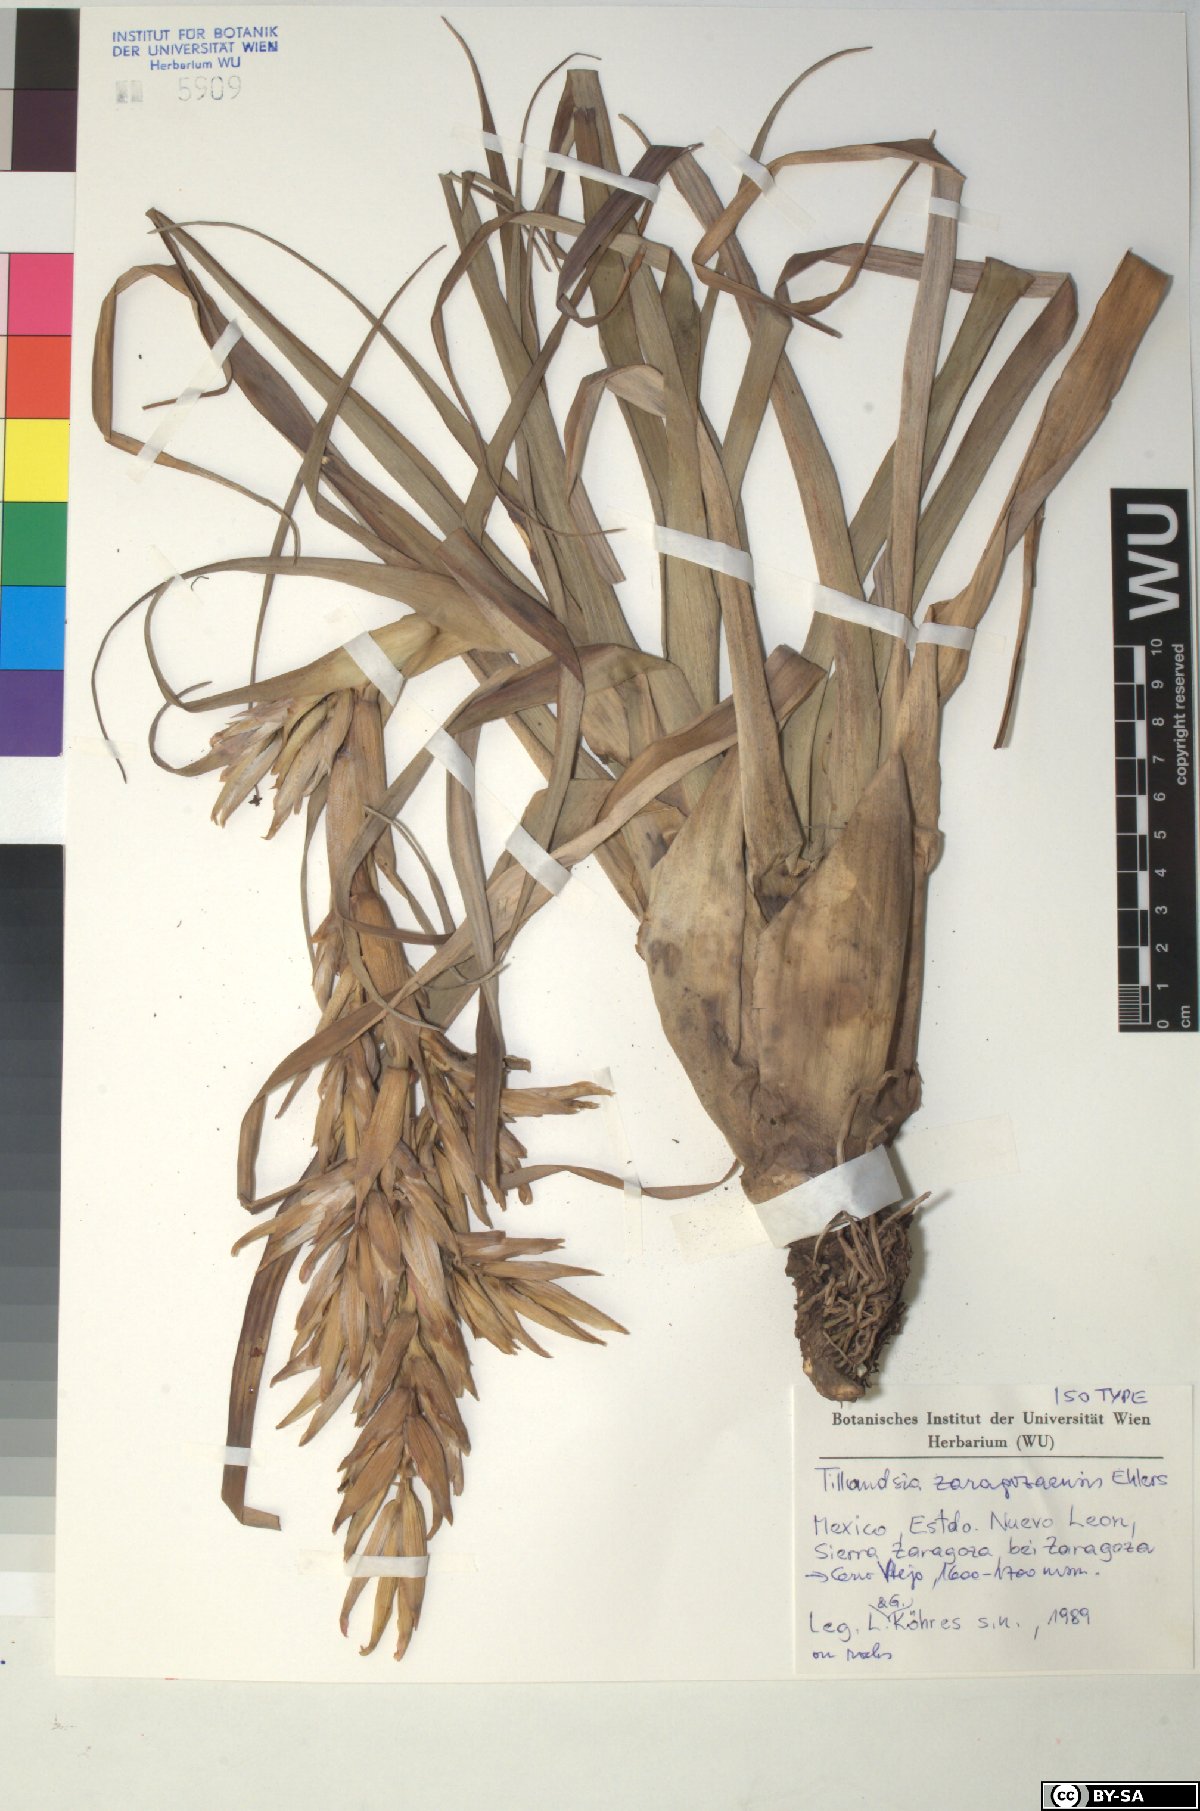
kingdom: Plantae
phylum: Tracheophyta
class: Liliopsida
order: Poales
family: Bromeliaceae
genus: Tillandsia
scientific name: Tillandsia zaragozaensis
